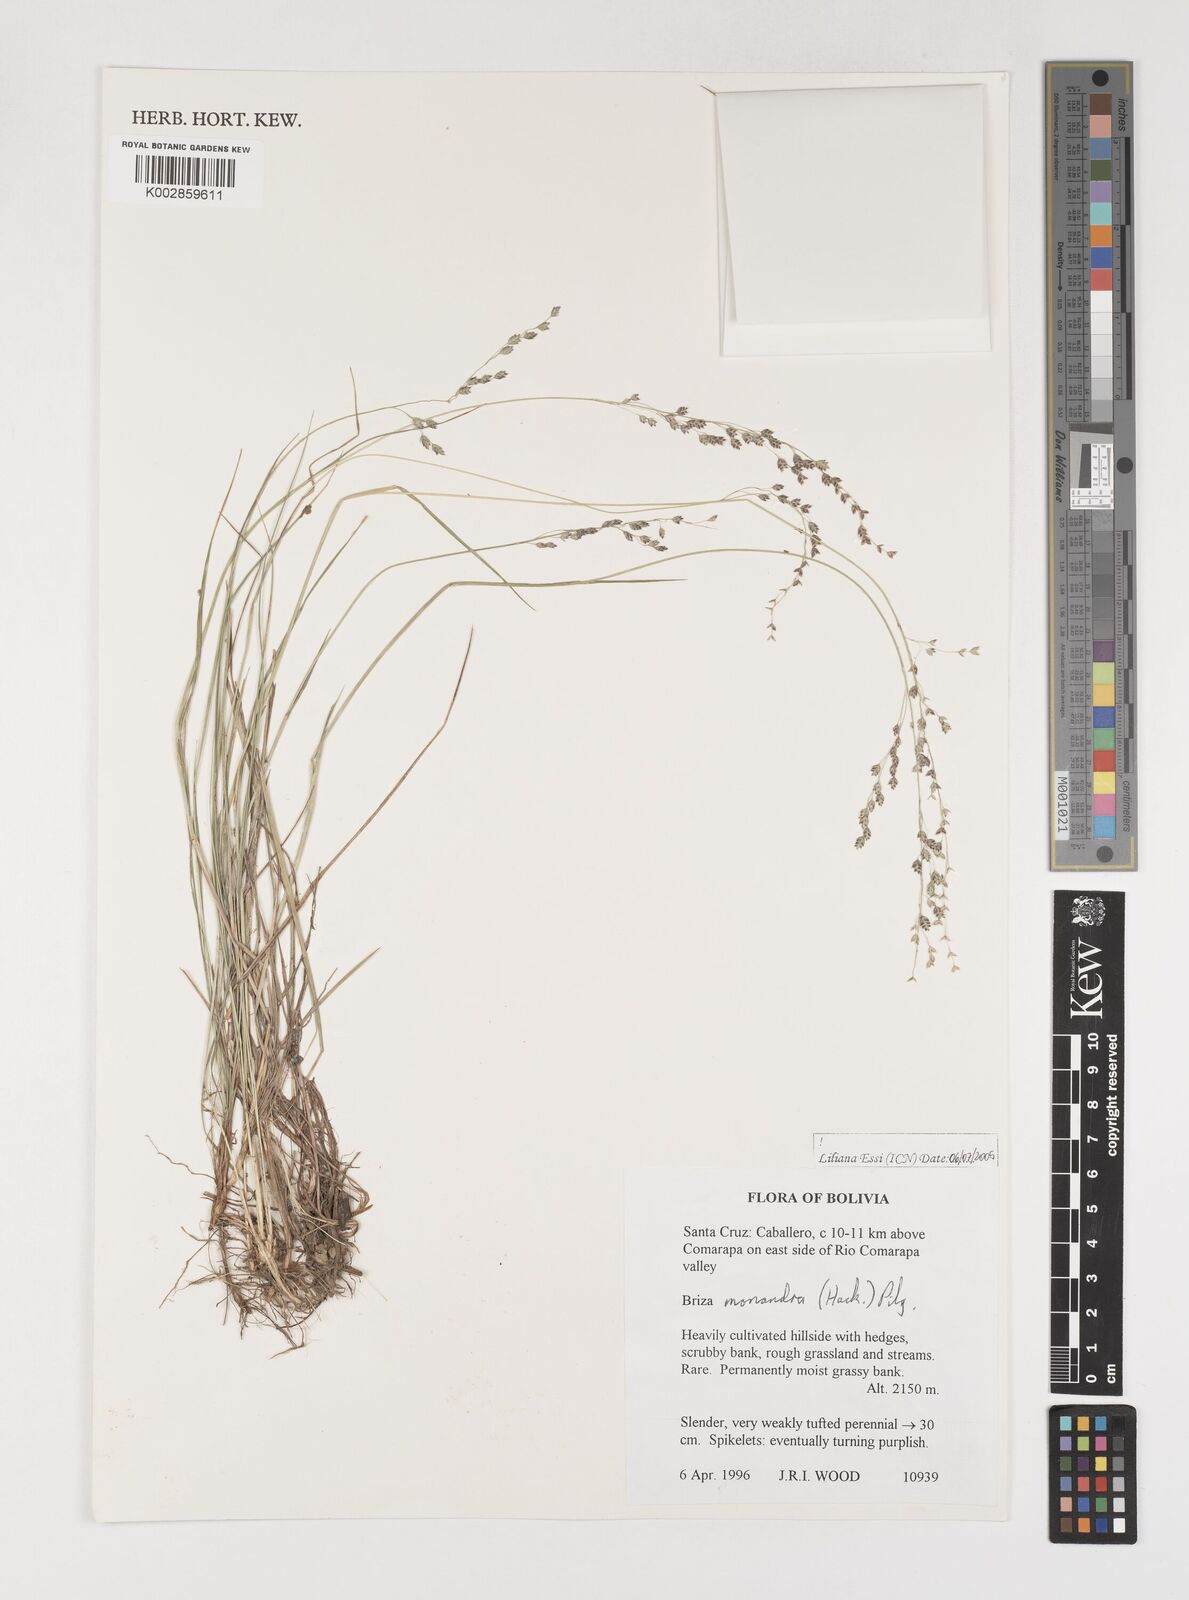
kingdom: Plantae
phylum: Tracheophyta
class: Liliopsida
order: Poales
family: Poaceae
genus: Poidium
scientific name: Poidium monandrum
